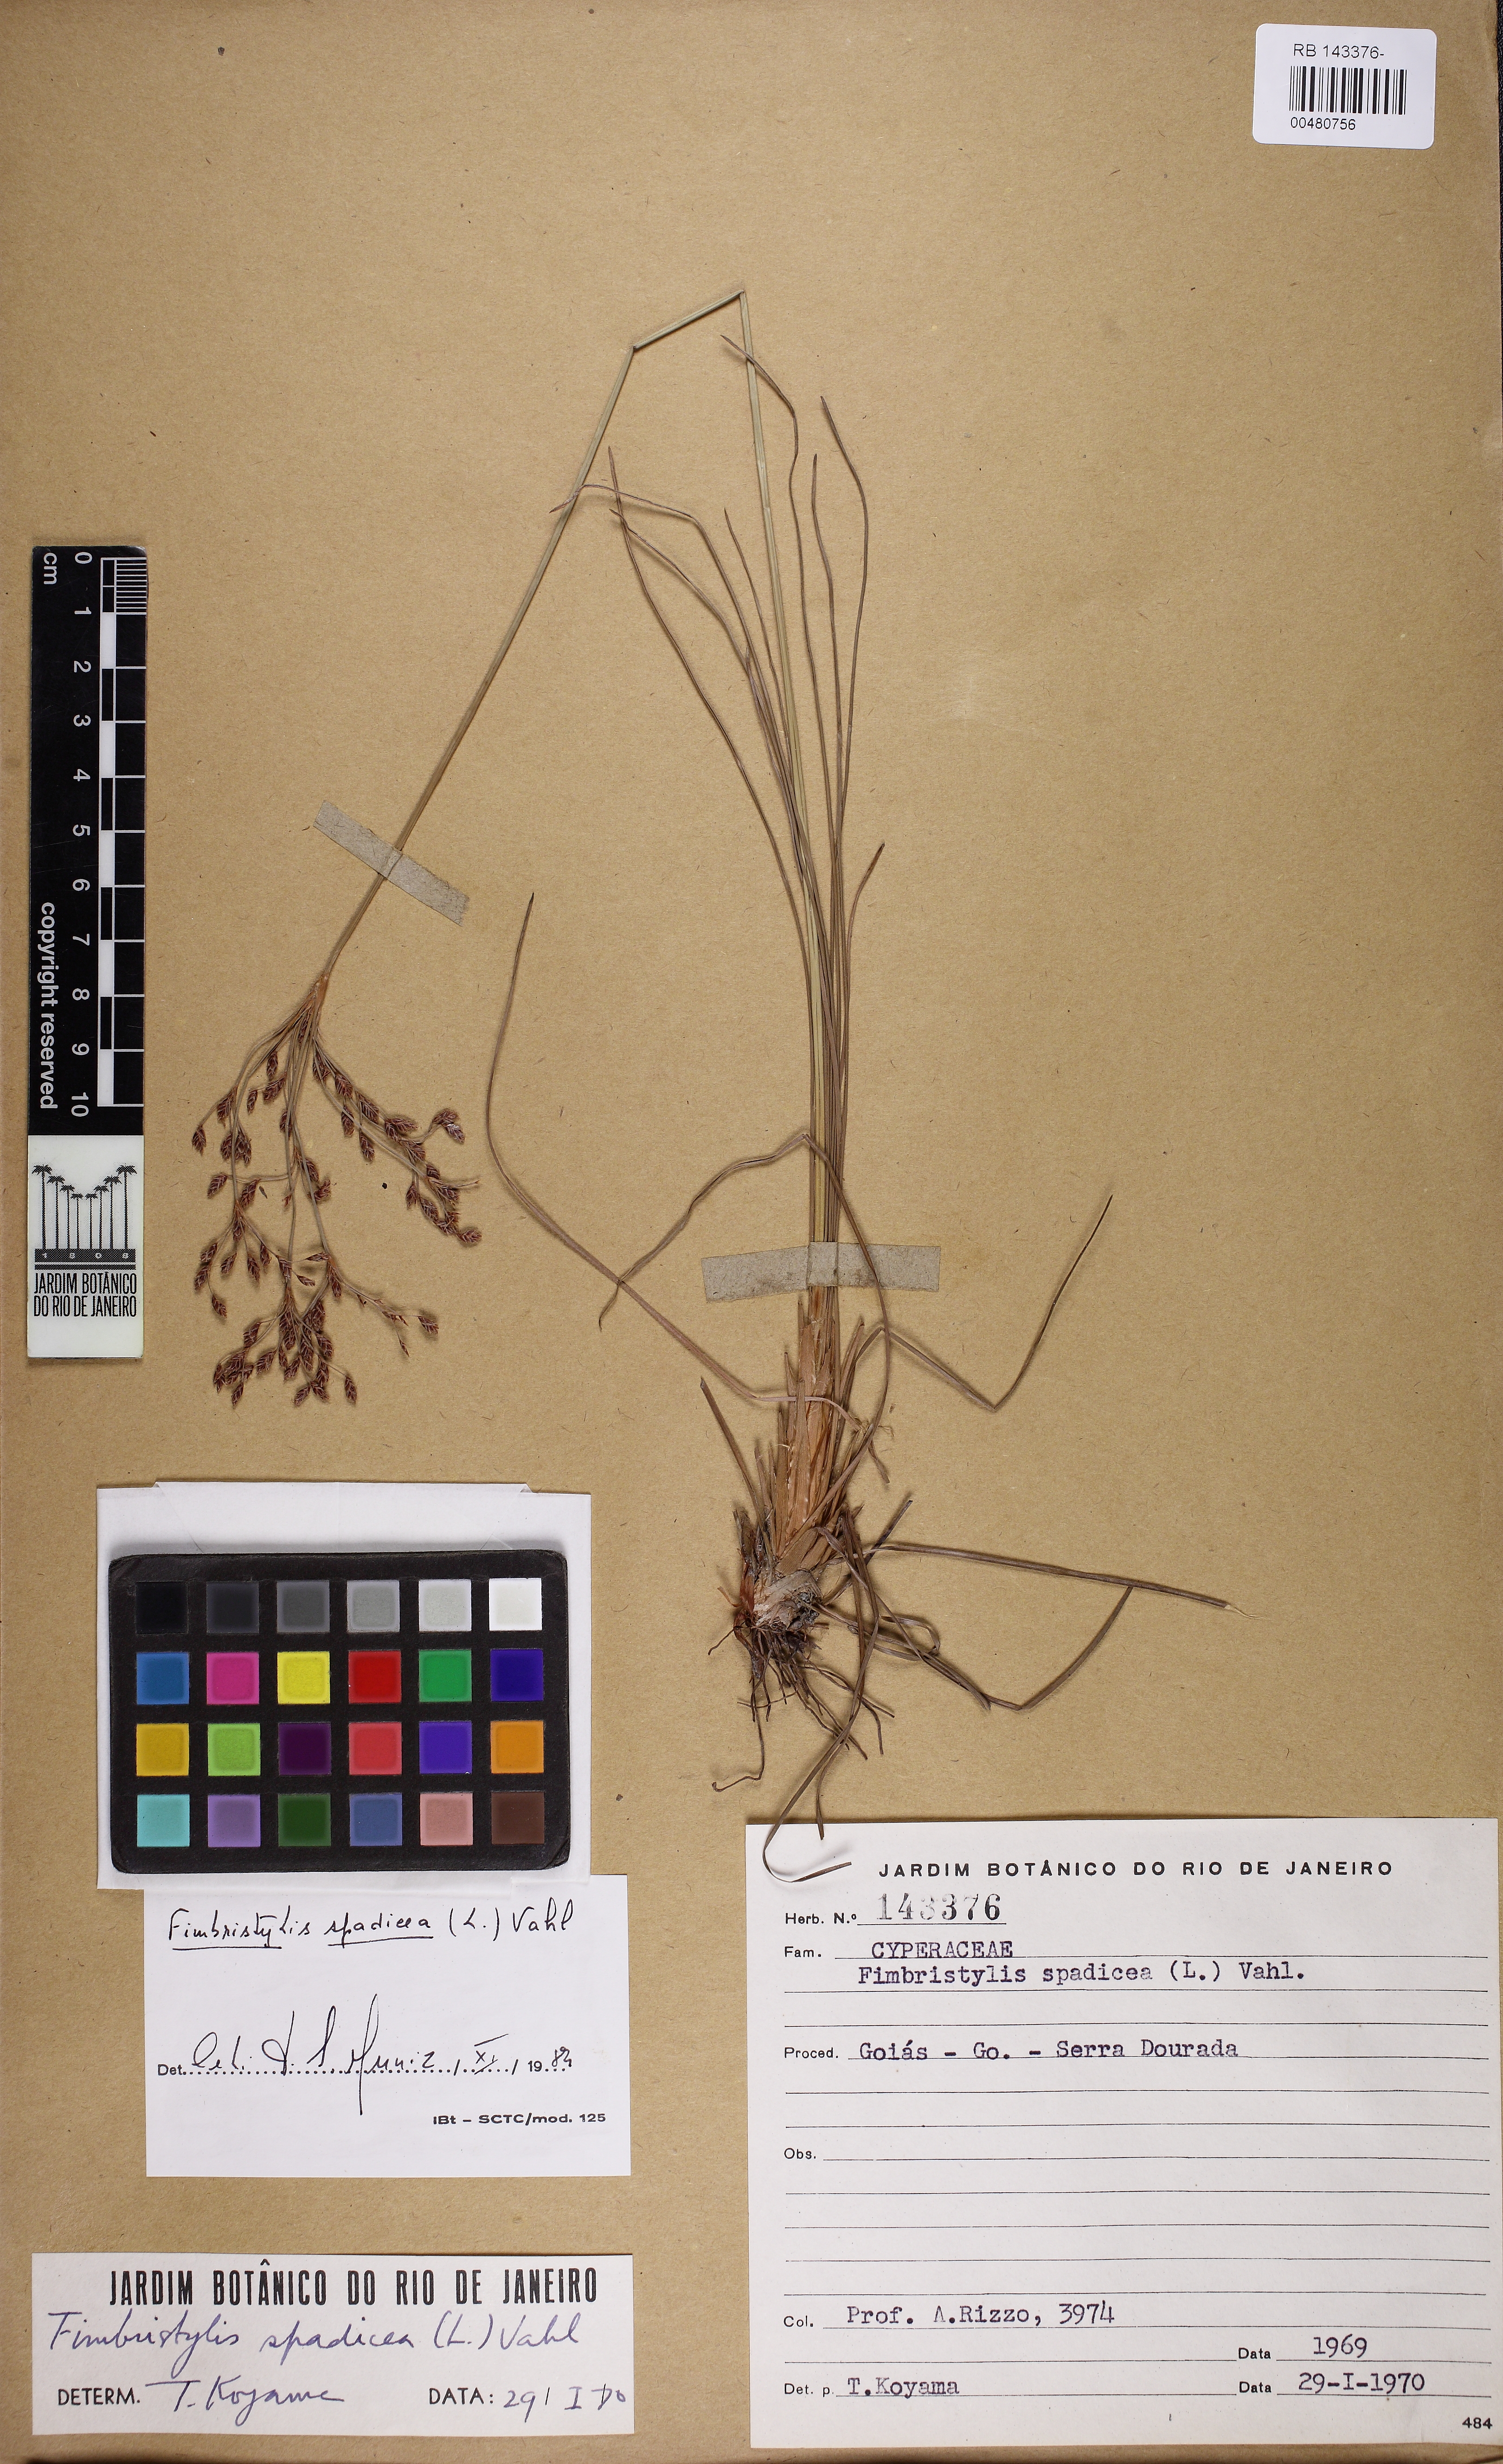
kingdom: Plantae
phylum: Tracheophyta
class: Liliopsida
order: Poales
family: Cyperaceae
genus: Bulbostylis
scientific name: Bulbostylis jacobinae
